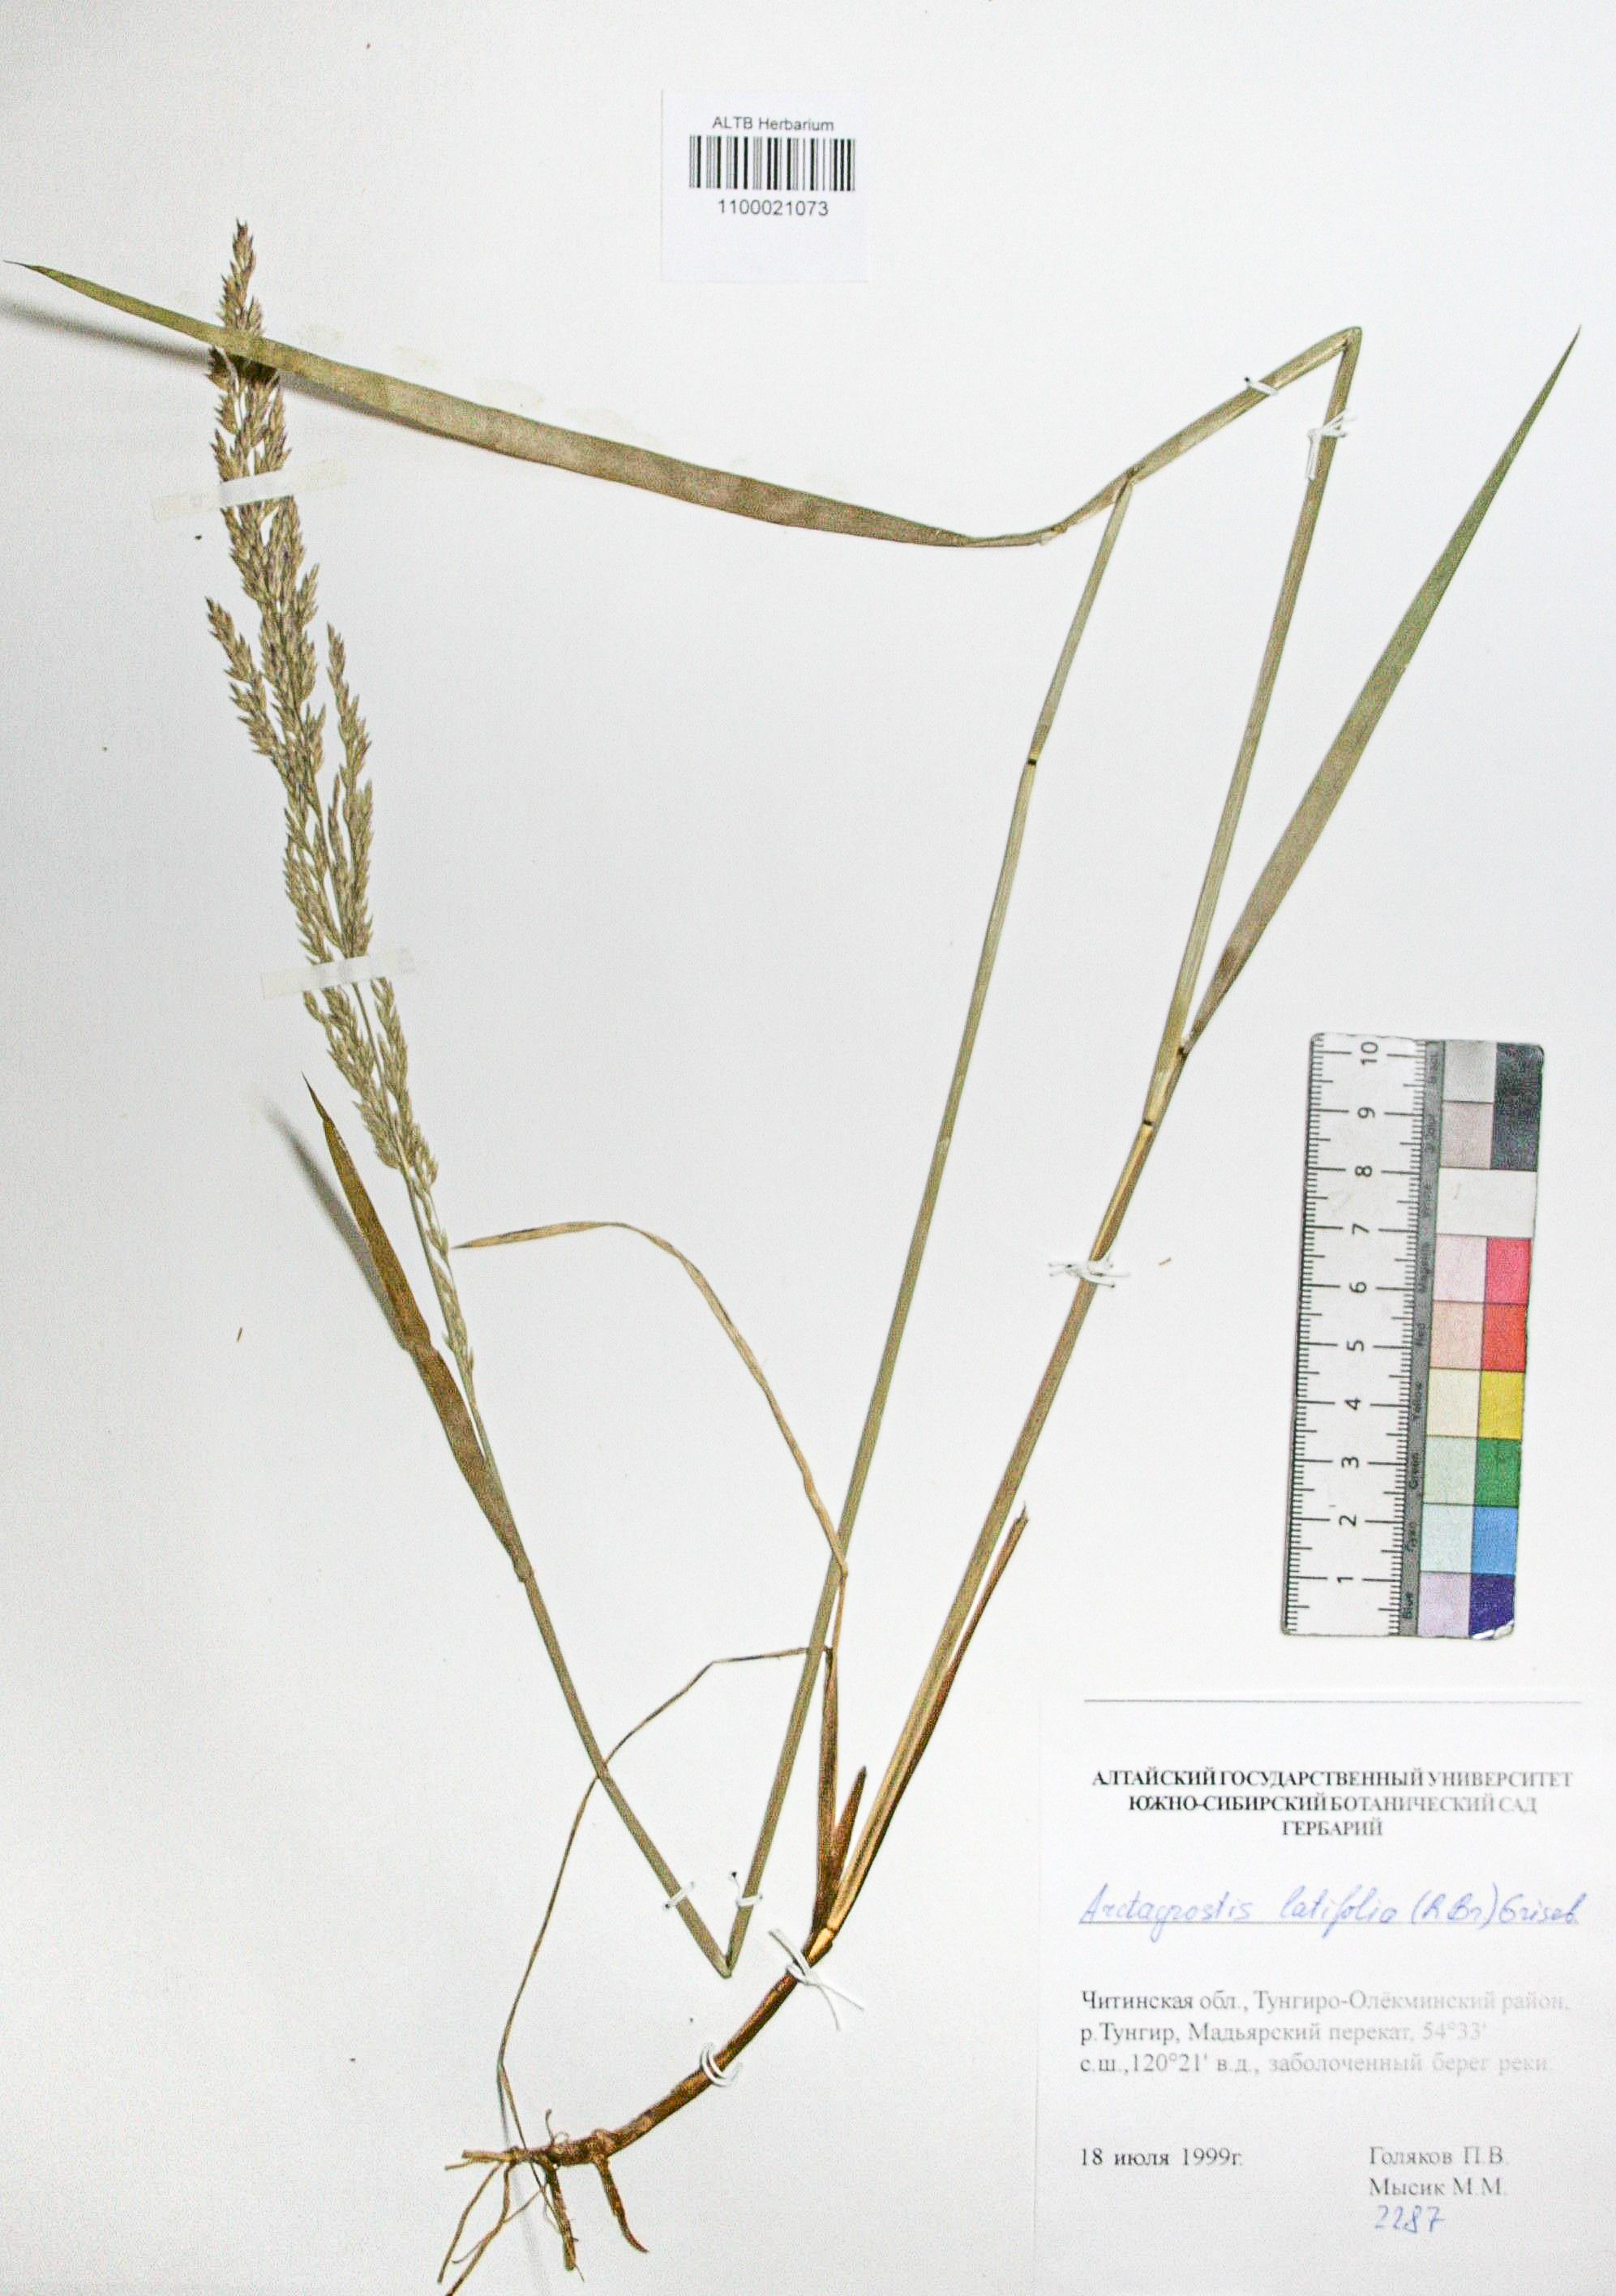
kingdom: Plantae
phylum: Tracheophyta
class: Liliopsida
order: Poales
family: Poaceae
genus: Arctagrostis
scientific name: Arctagrostis latifolia
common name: Arctic grass
